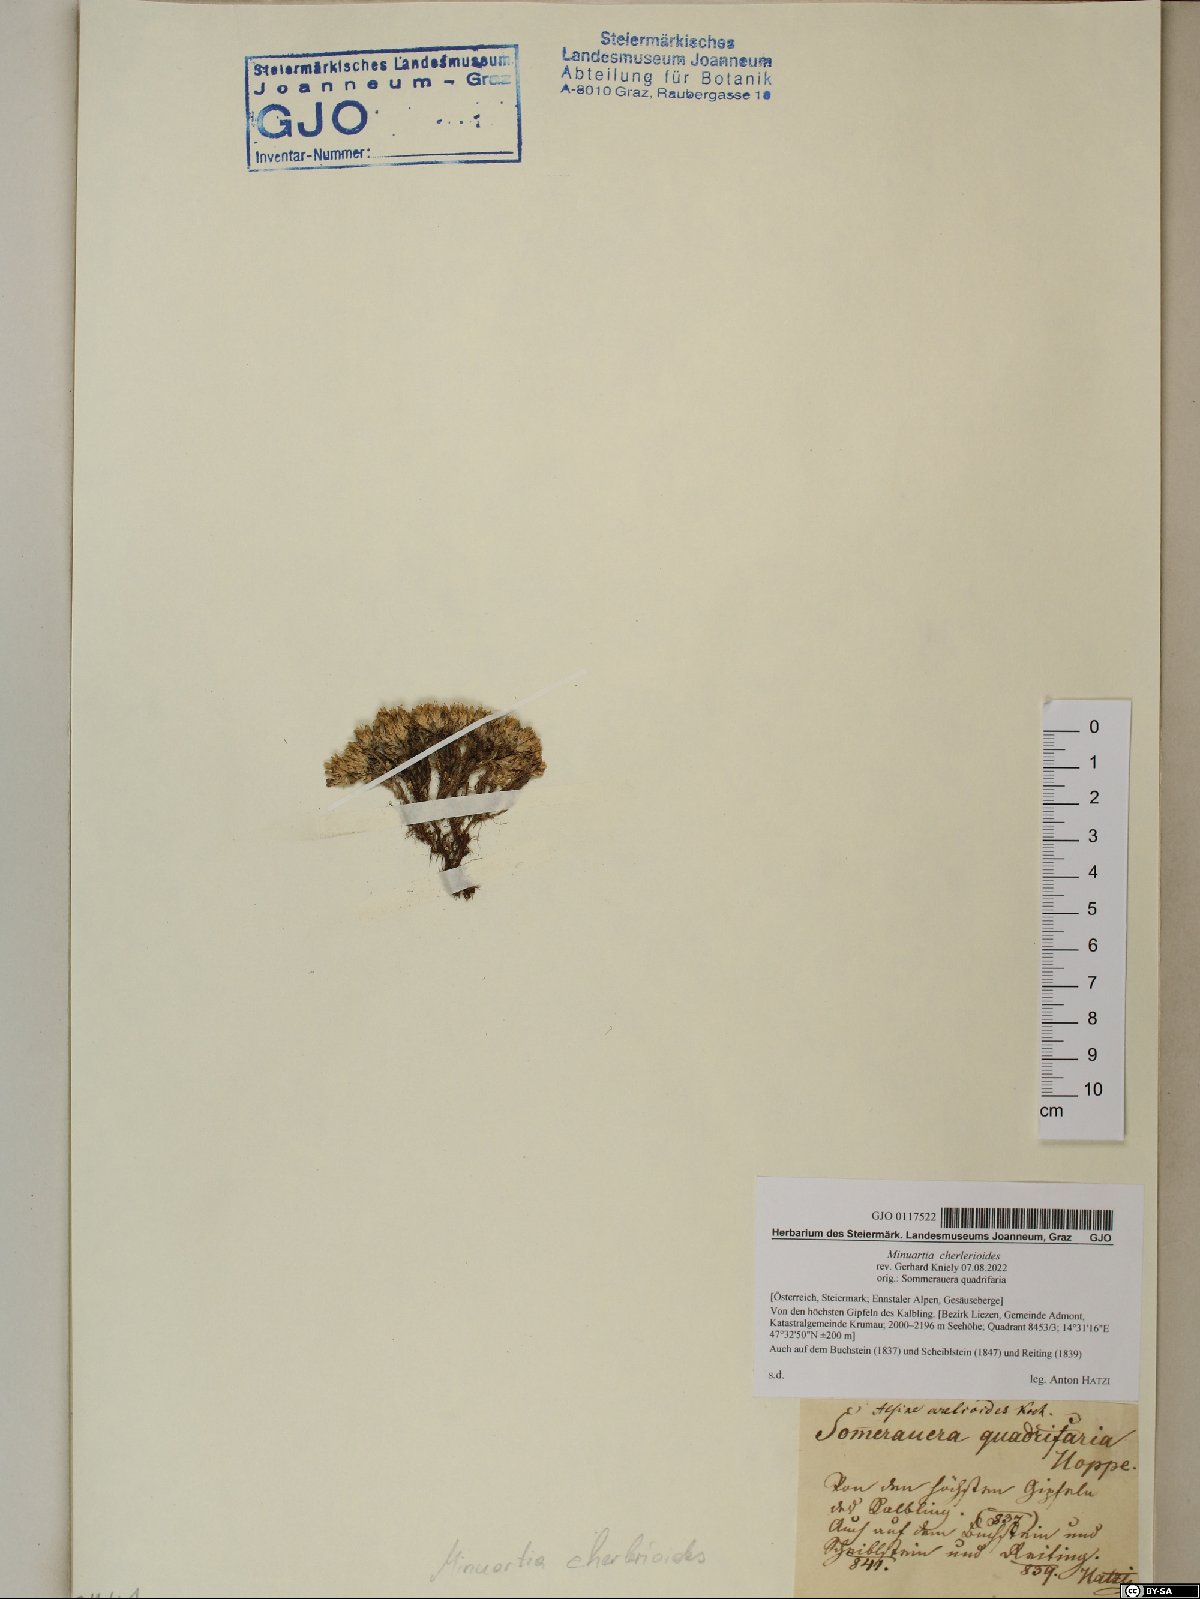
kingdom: Plantae
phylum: Tracheophyta
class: Magnoliopsida
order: Caryophyllales
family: Caryophyllaceae
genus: Facchinia
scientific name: Facchinia cherlerioides
